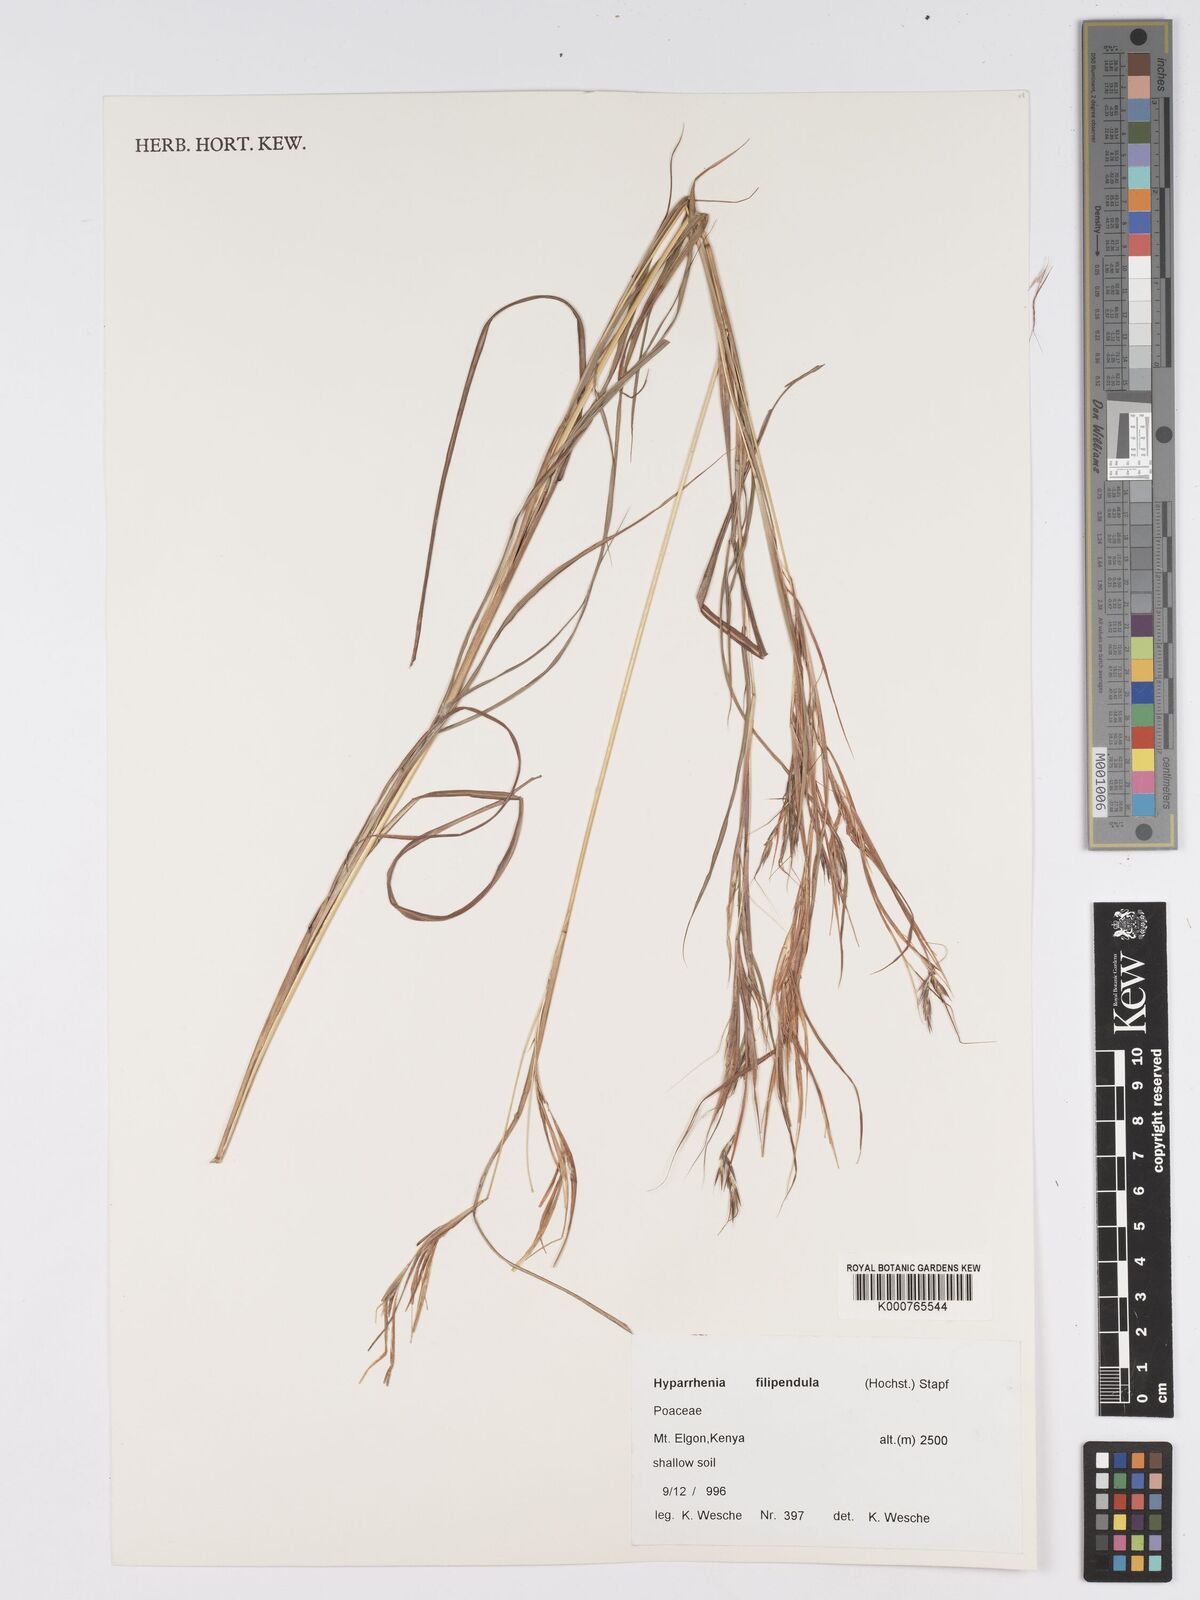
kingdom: Plantae
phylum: Tracheophyta
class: Liliopsida
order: Poales
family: Poaceae
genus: Hyparrhenia
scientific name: Hyparrhenia filipendula
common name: Tambookie grass
